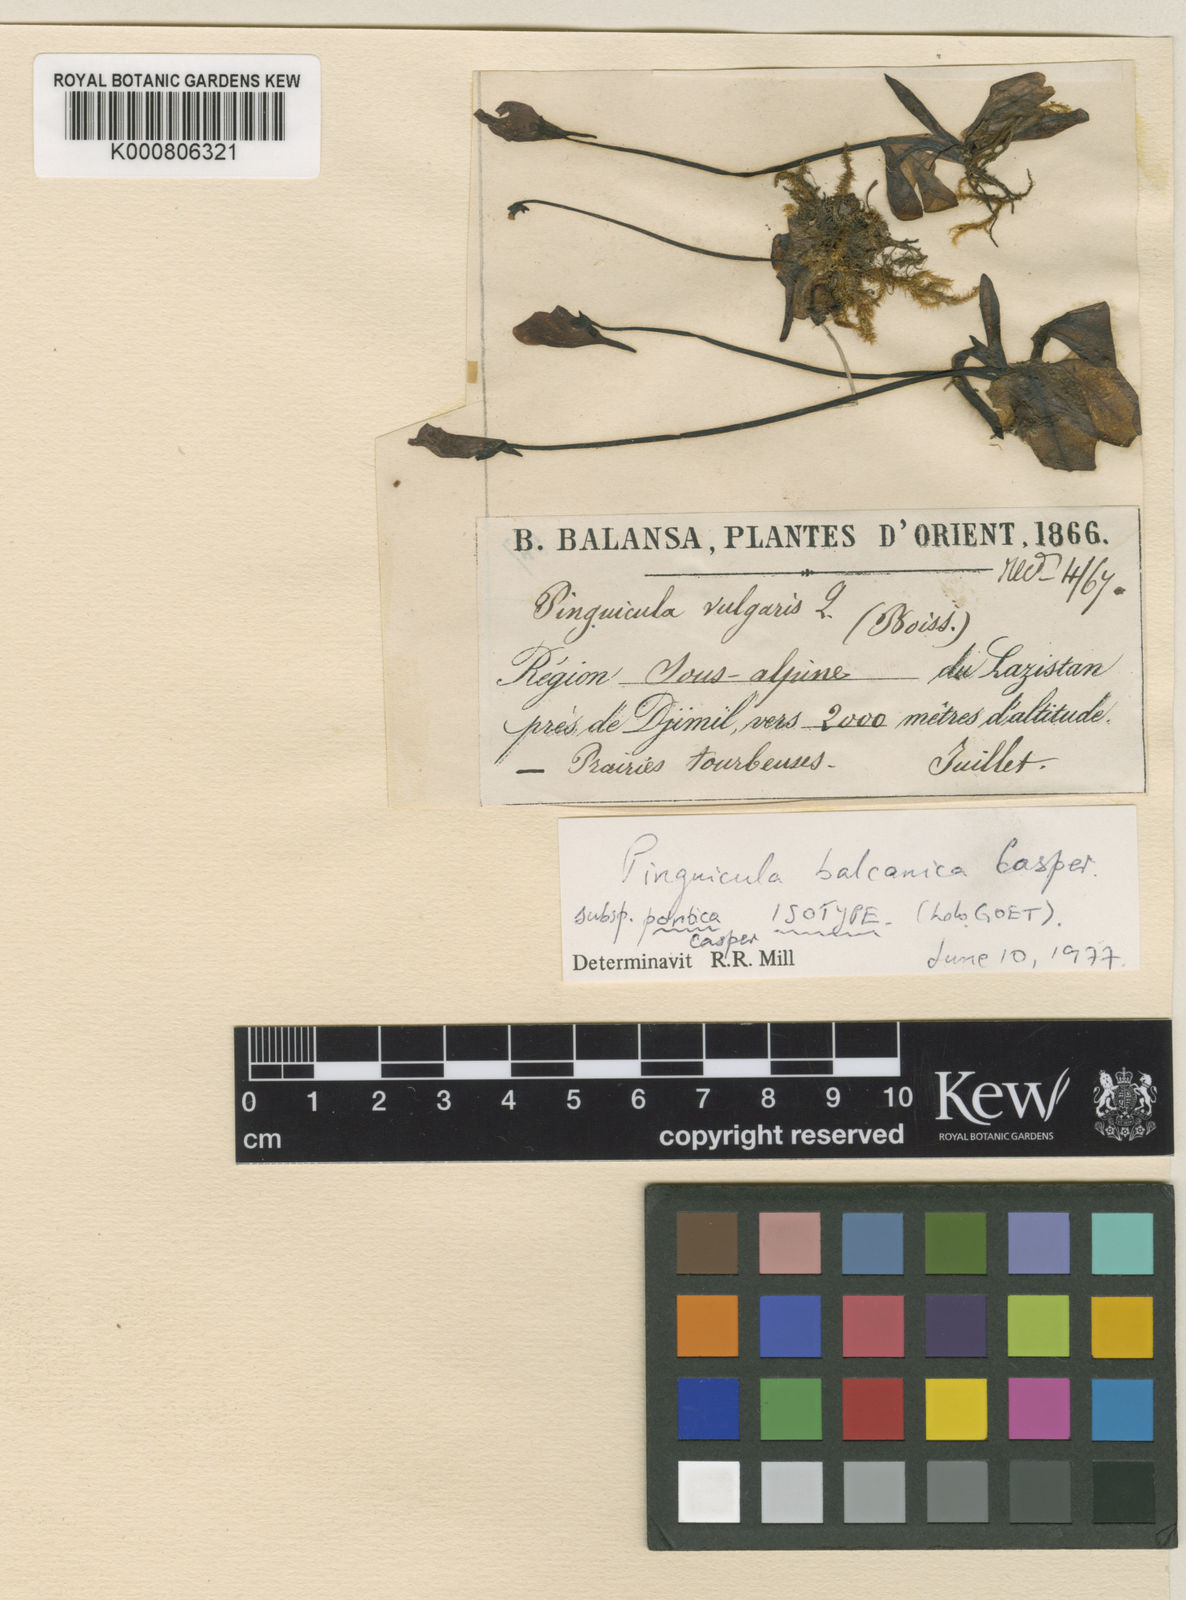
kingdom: Plantae
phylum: Tracheophyta
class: Magnoliopsida
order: Lamiales
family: Lentibulariaceae
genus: Pinguicula
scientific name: Pinguicula balcanica
